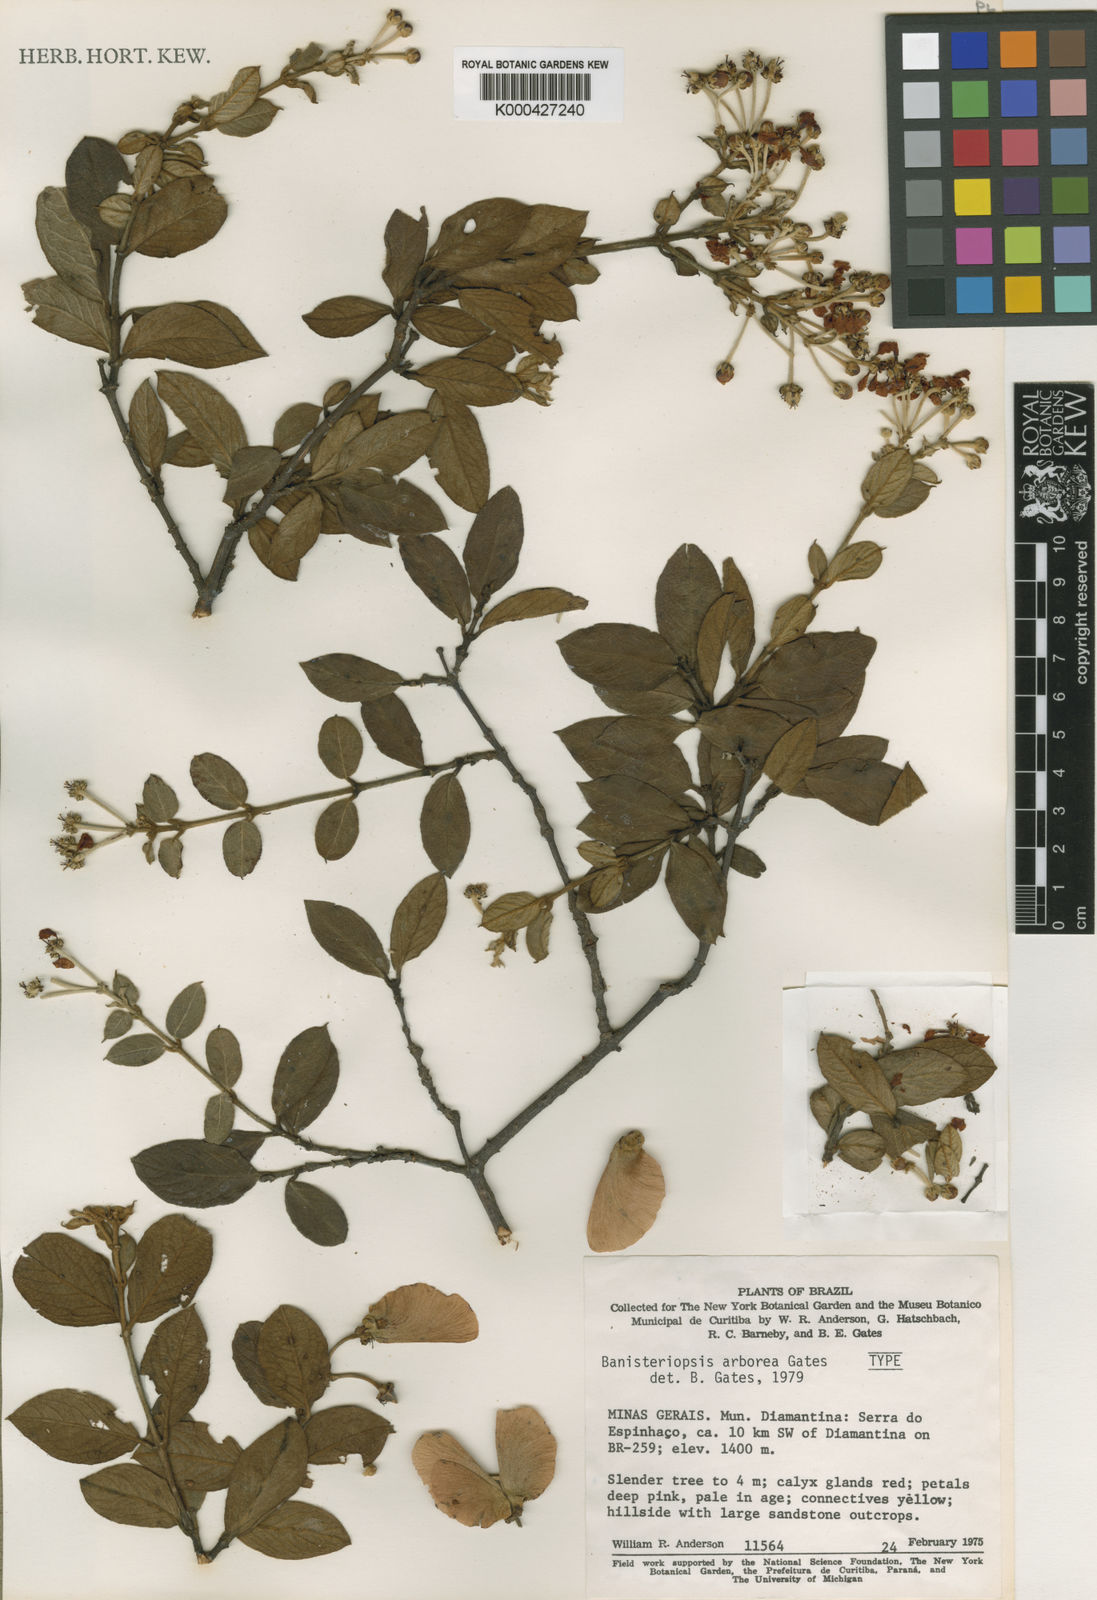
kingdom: Plantae
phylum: Tracheophyta
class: Magnoliopsida
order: Malpighiales
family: Malpighiaceae
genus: Banisteriopsis
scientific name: Banisteriopsis arborea
